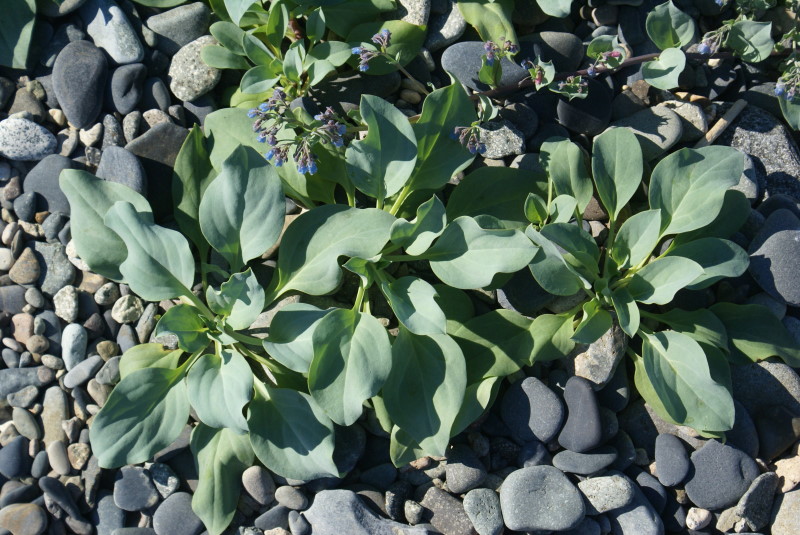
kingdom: Plantae
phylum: Tracheophyta
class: Magnoliopsida
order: Boraginales
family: Boraginaceae
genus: Mertensia
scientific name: Mertensia maritima
